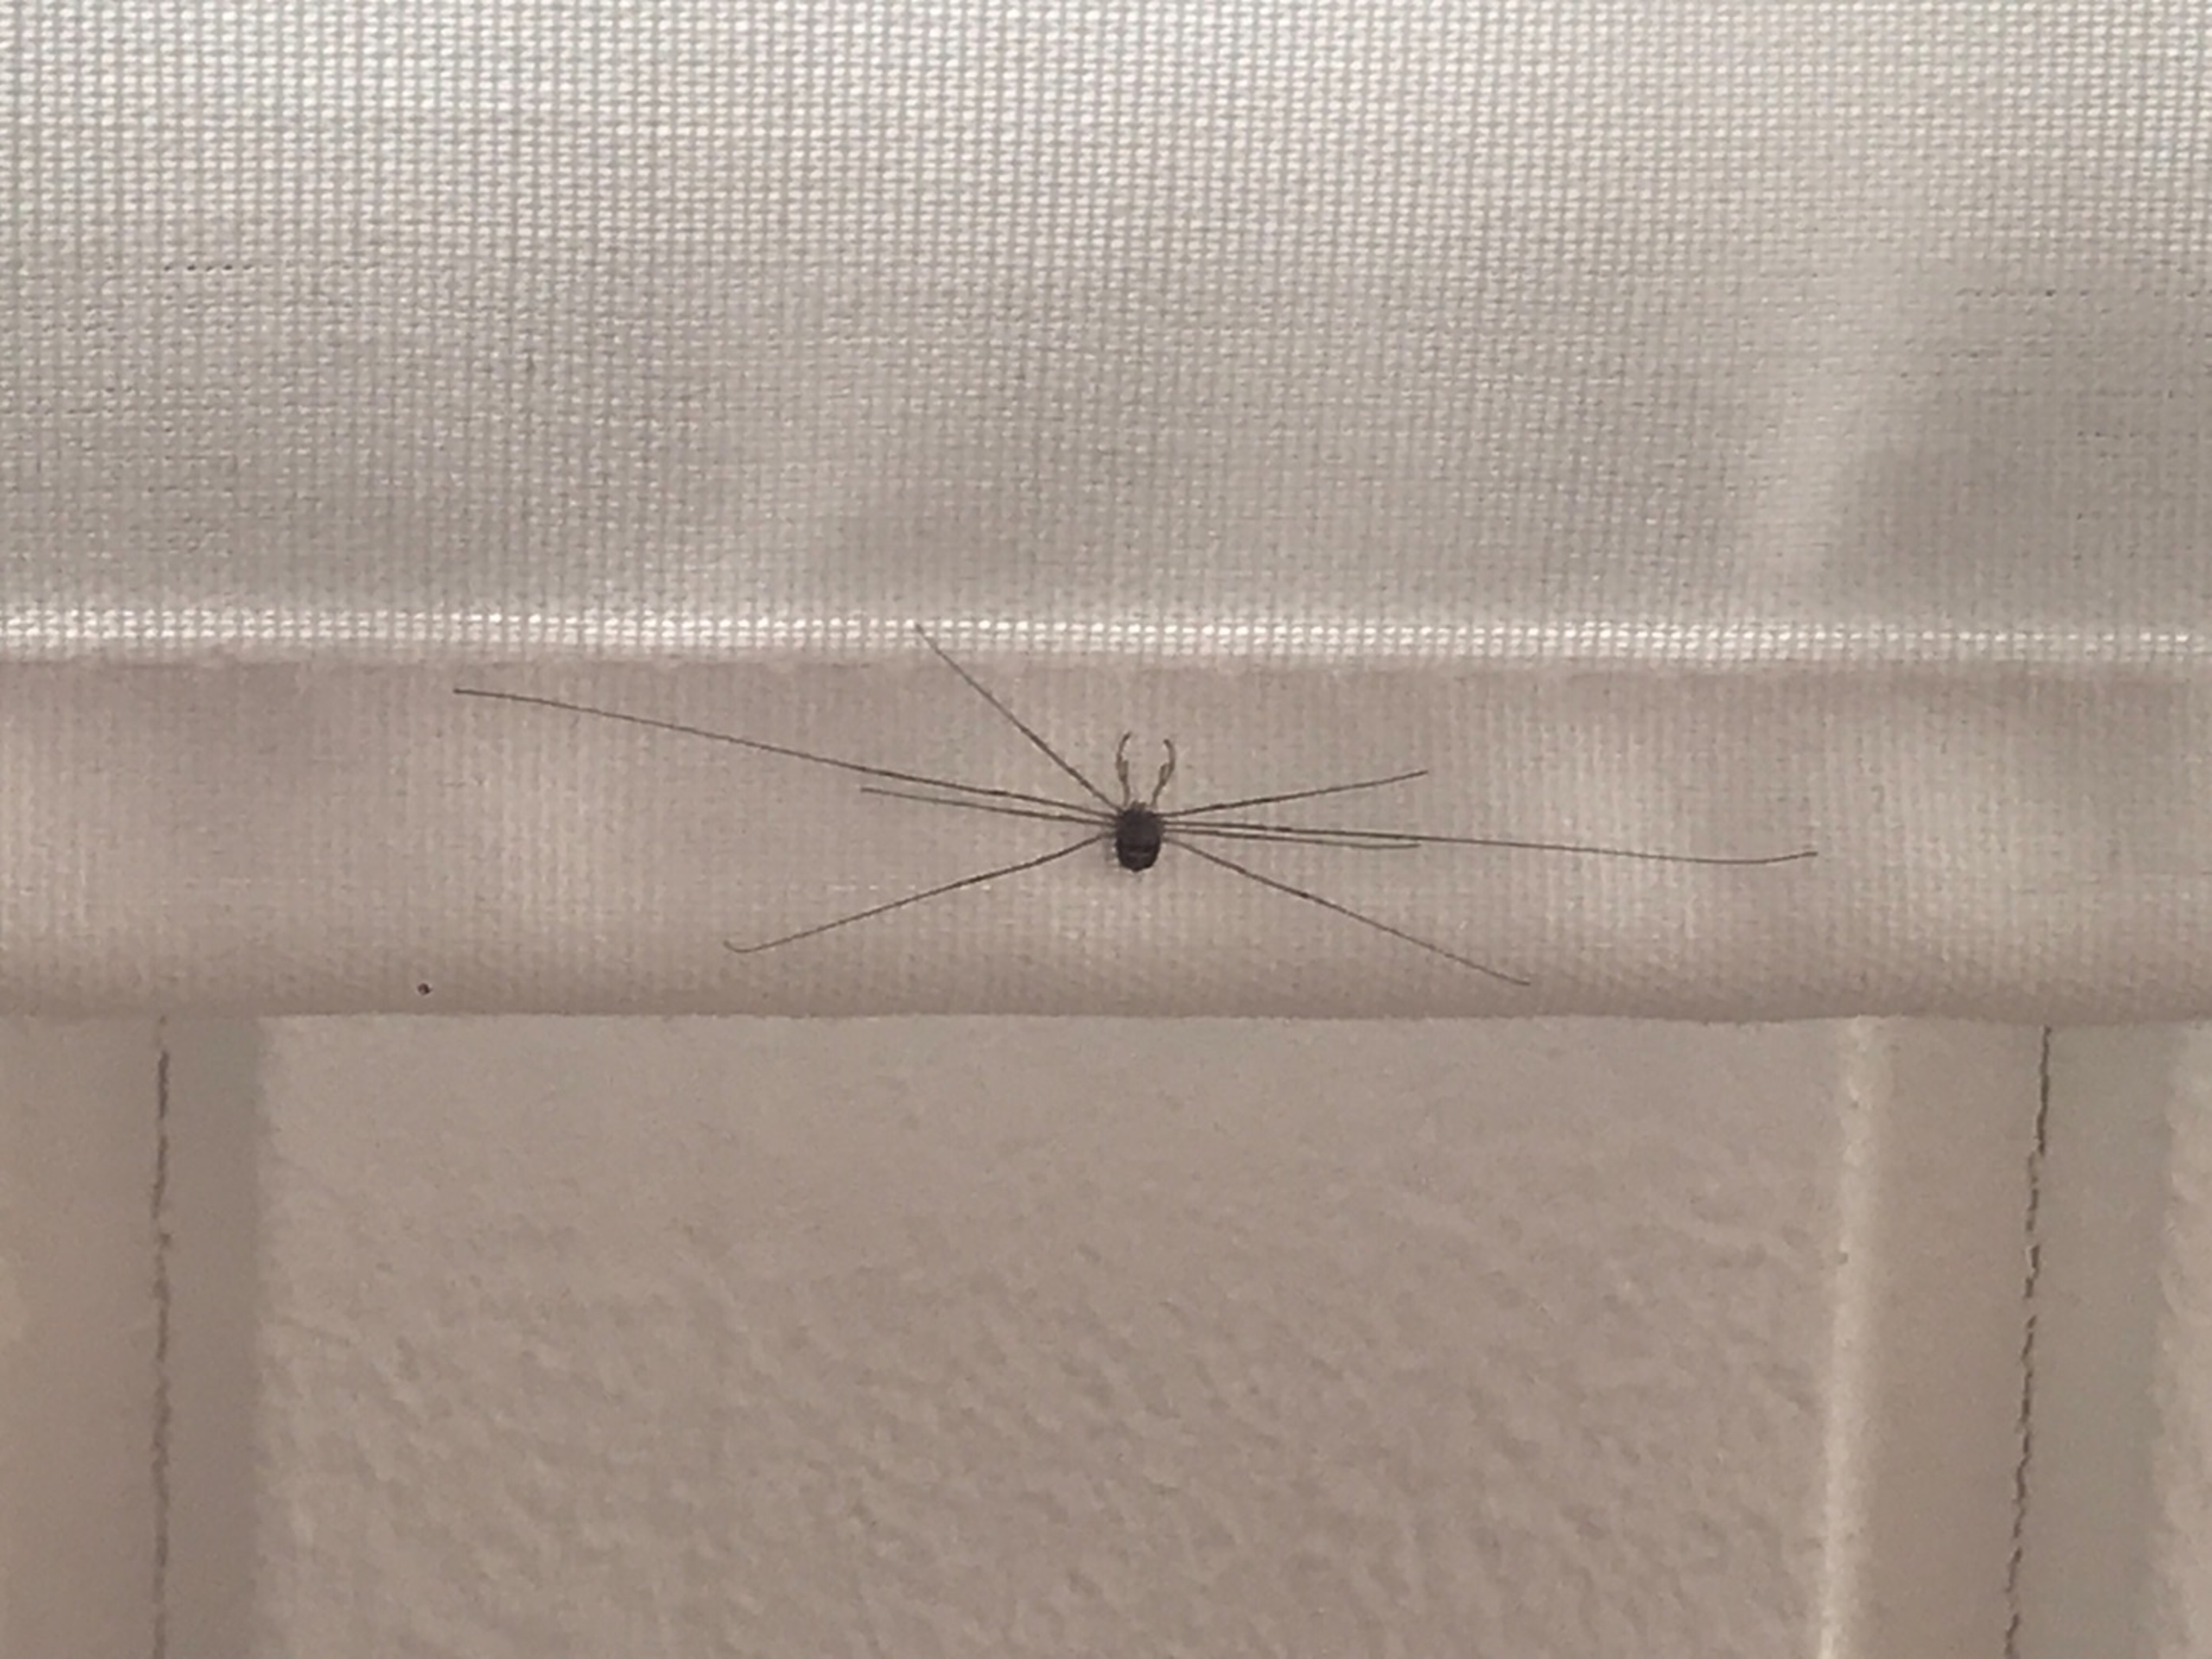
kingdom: Animalia
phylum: Arthropoda
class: Arachnida
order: Opiliones
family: Phalangiidae
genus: Dicranopalpus
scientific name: Dicranopalpus ramosus
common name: Gaffelmejer
